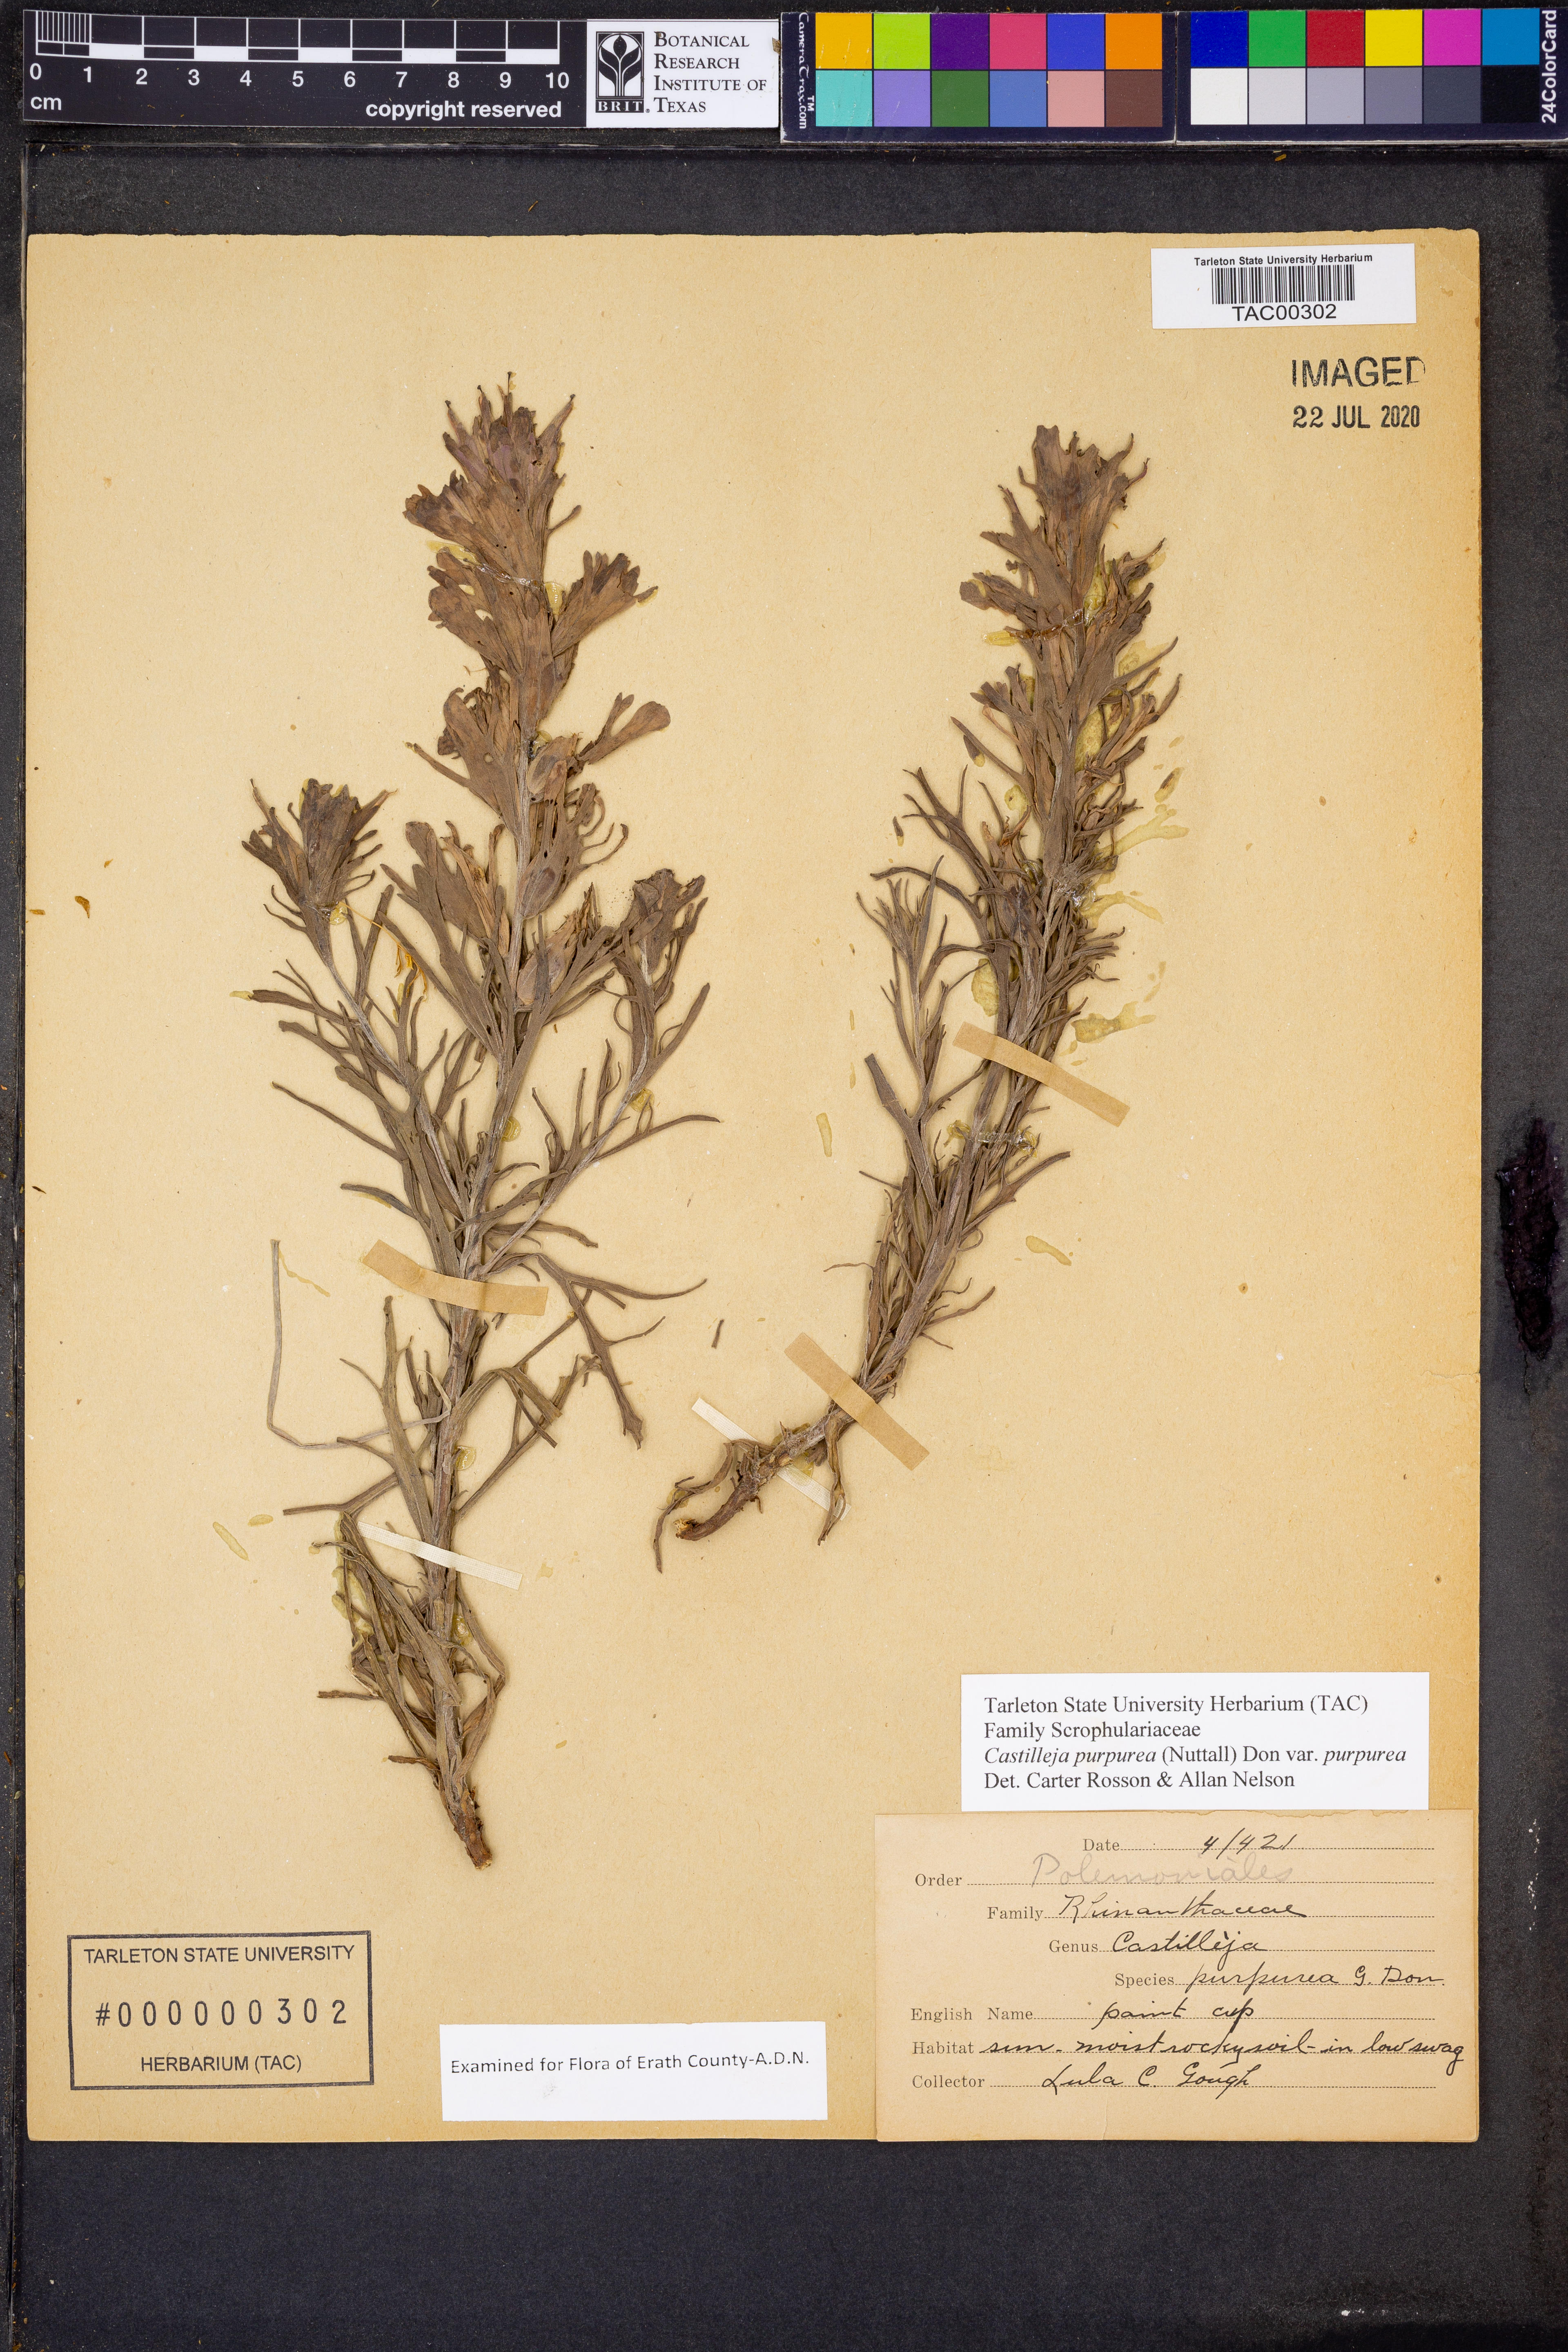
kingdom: Plantae
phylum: Tracheophyta
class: Magnoliopsida
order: Lamiales
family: Orobanchaceae
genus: Castilleja
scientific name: Castilleja purpurea
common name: Plains paintbrush
